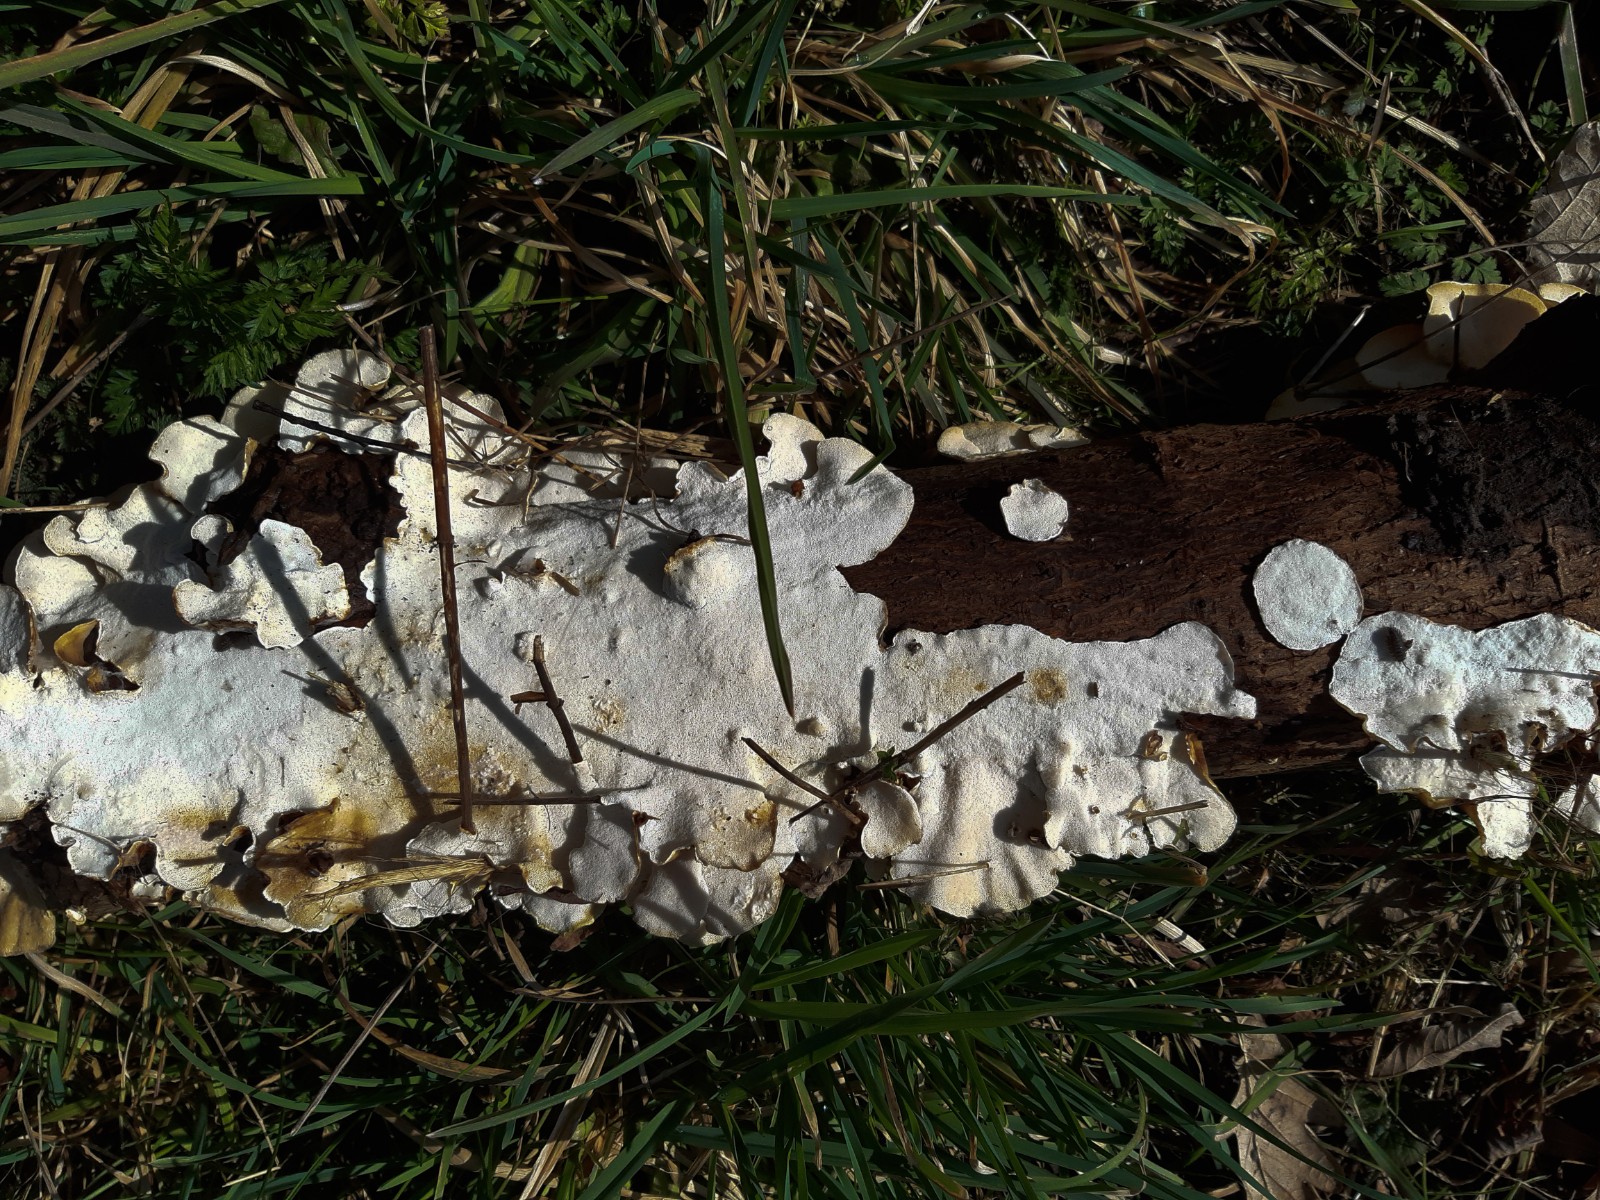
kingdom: Fungi
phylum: Basidiomycota
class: Agaricomycetes
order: Polyporales
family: Polyporaceae
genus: Trametes
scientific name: Trametes versicolor
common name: broget læderporesvamp
